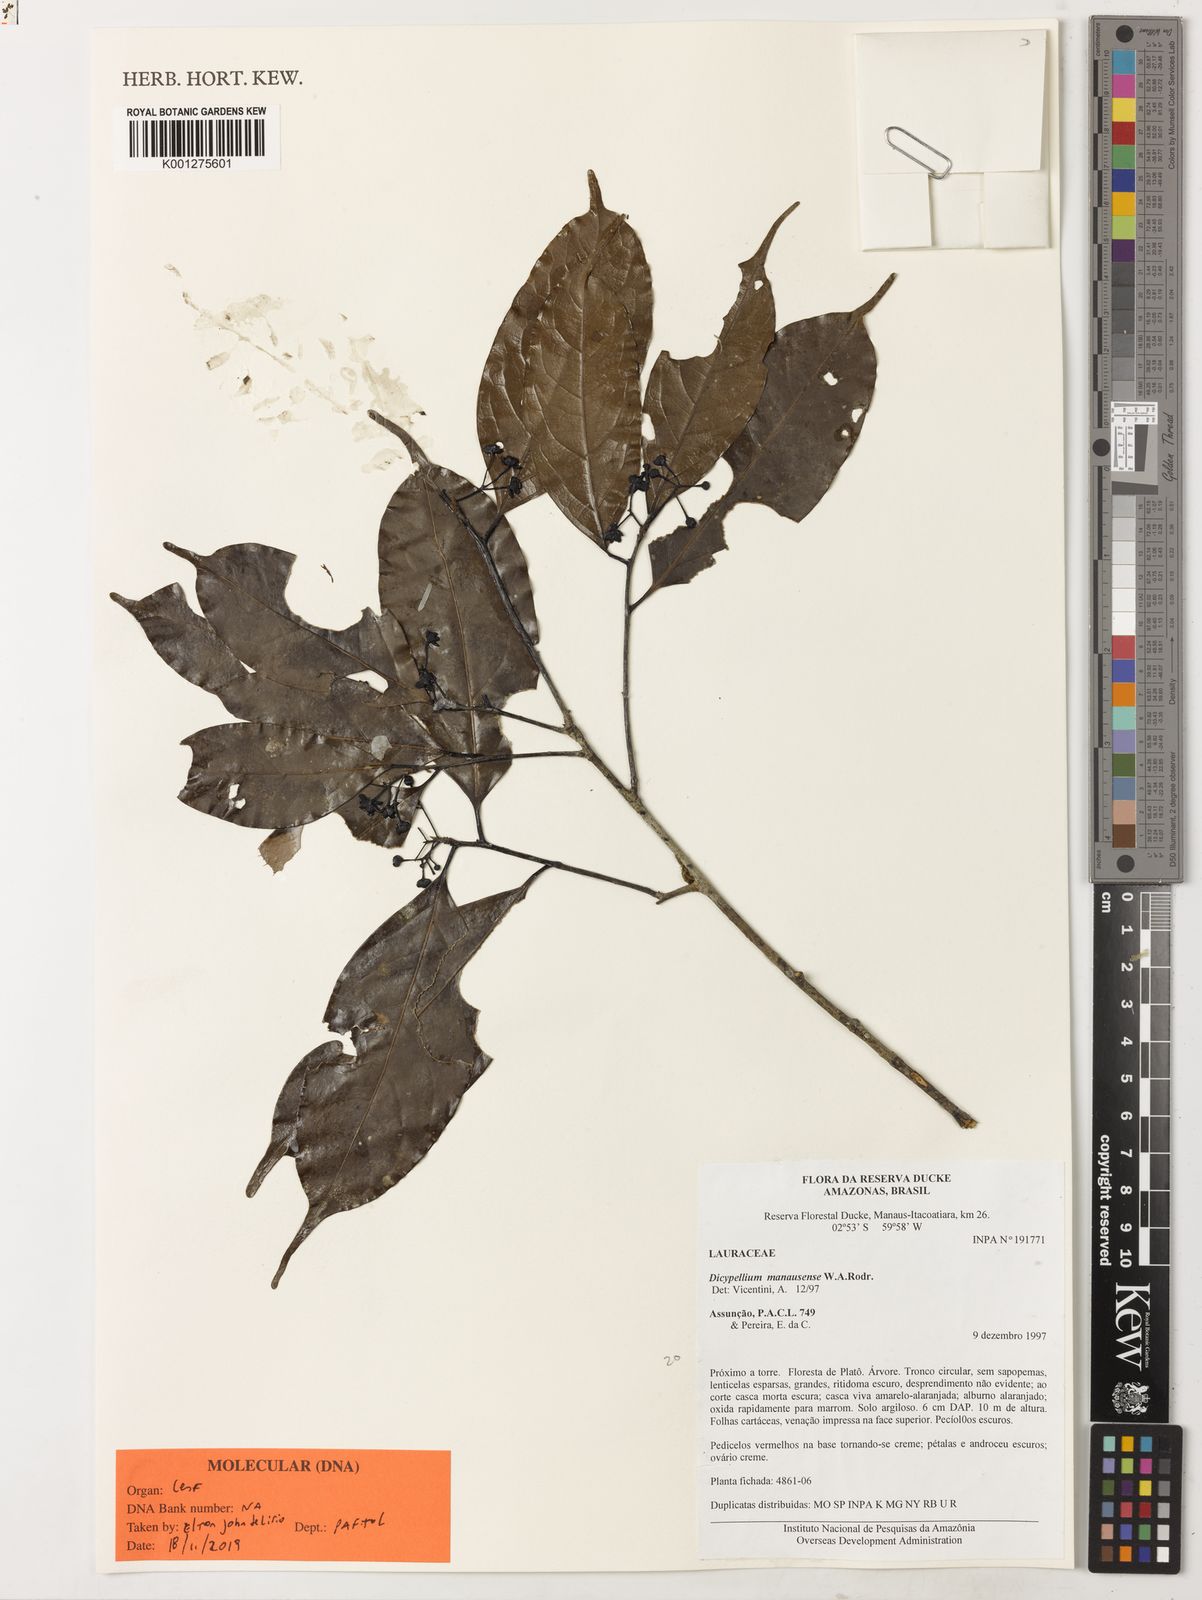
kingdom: Plantae
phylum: Tracheophyta
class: Magnoliopsida
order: Laurales
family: Lauraceae
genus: Dicypellium
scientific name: Dicypellium manausense
